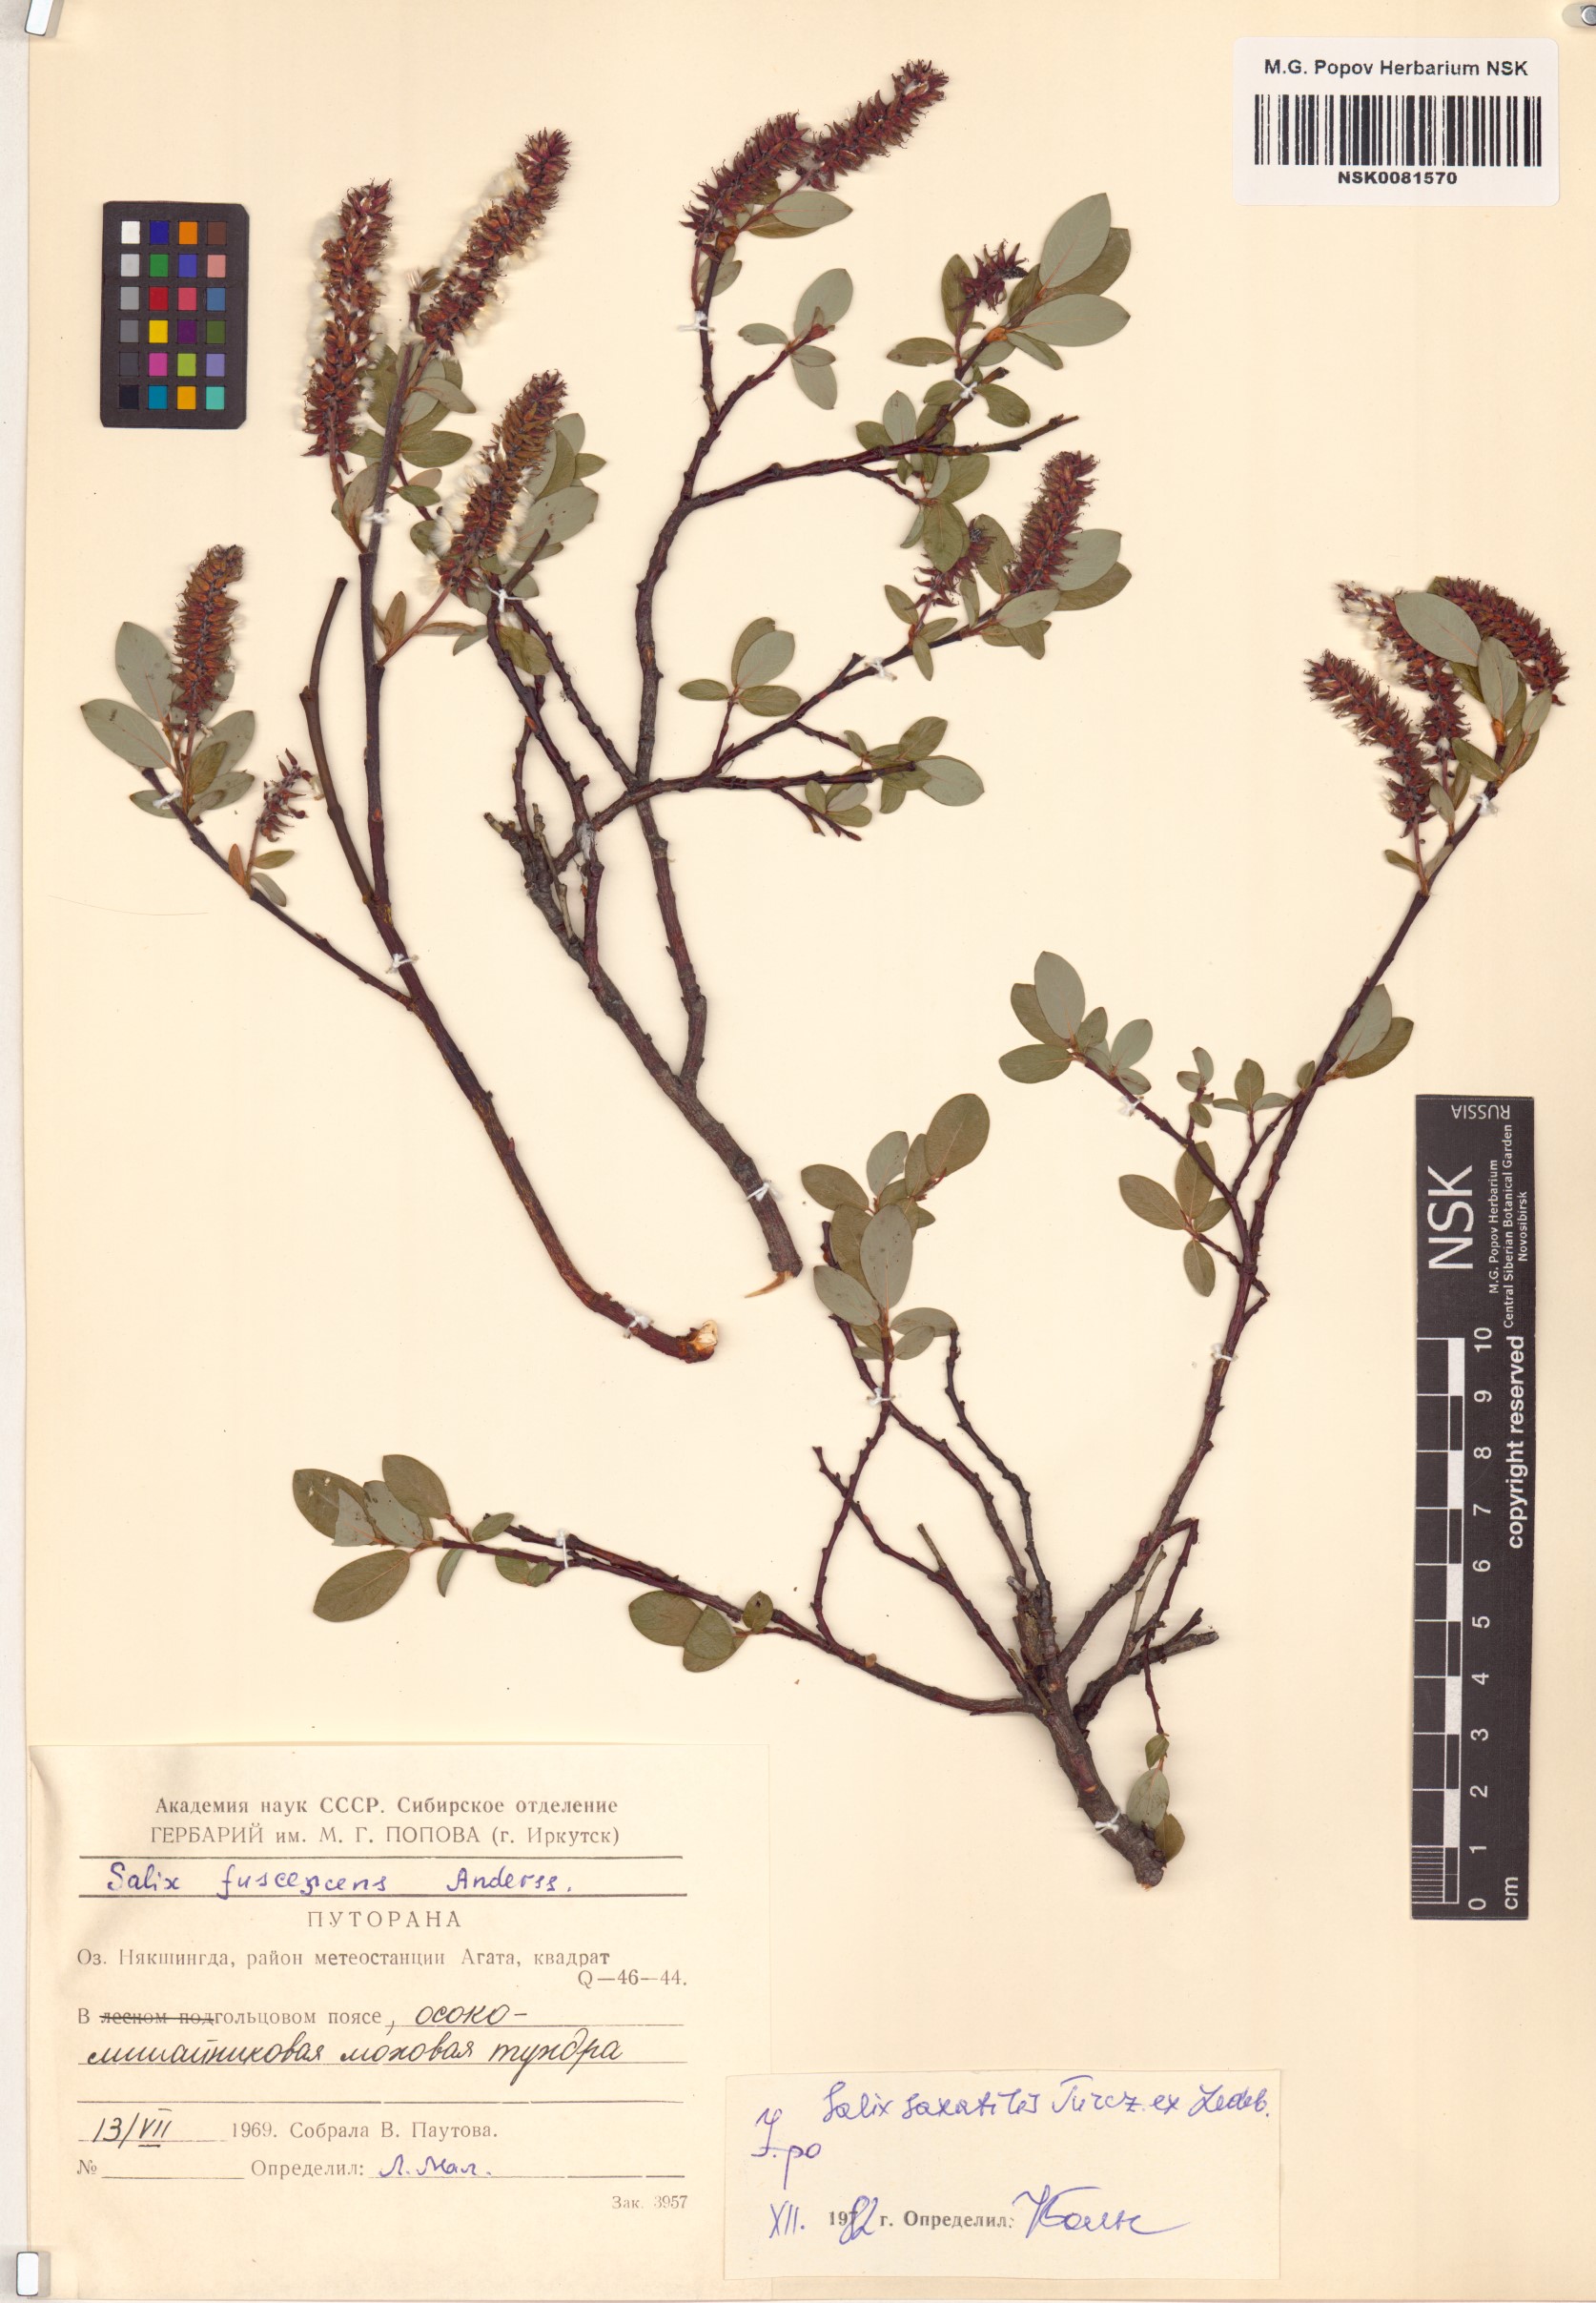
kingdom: Plantae
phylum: Tracheophyta
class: Magnoliopsida
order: Malpighiales
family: Salicaceae
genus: Salix
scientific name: Salix saxatilis
